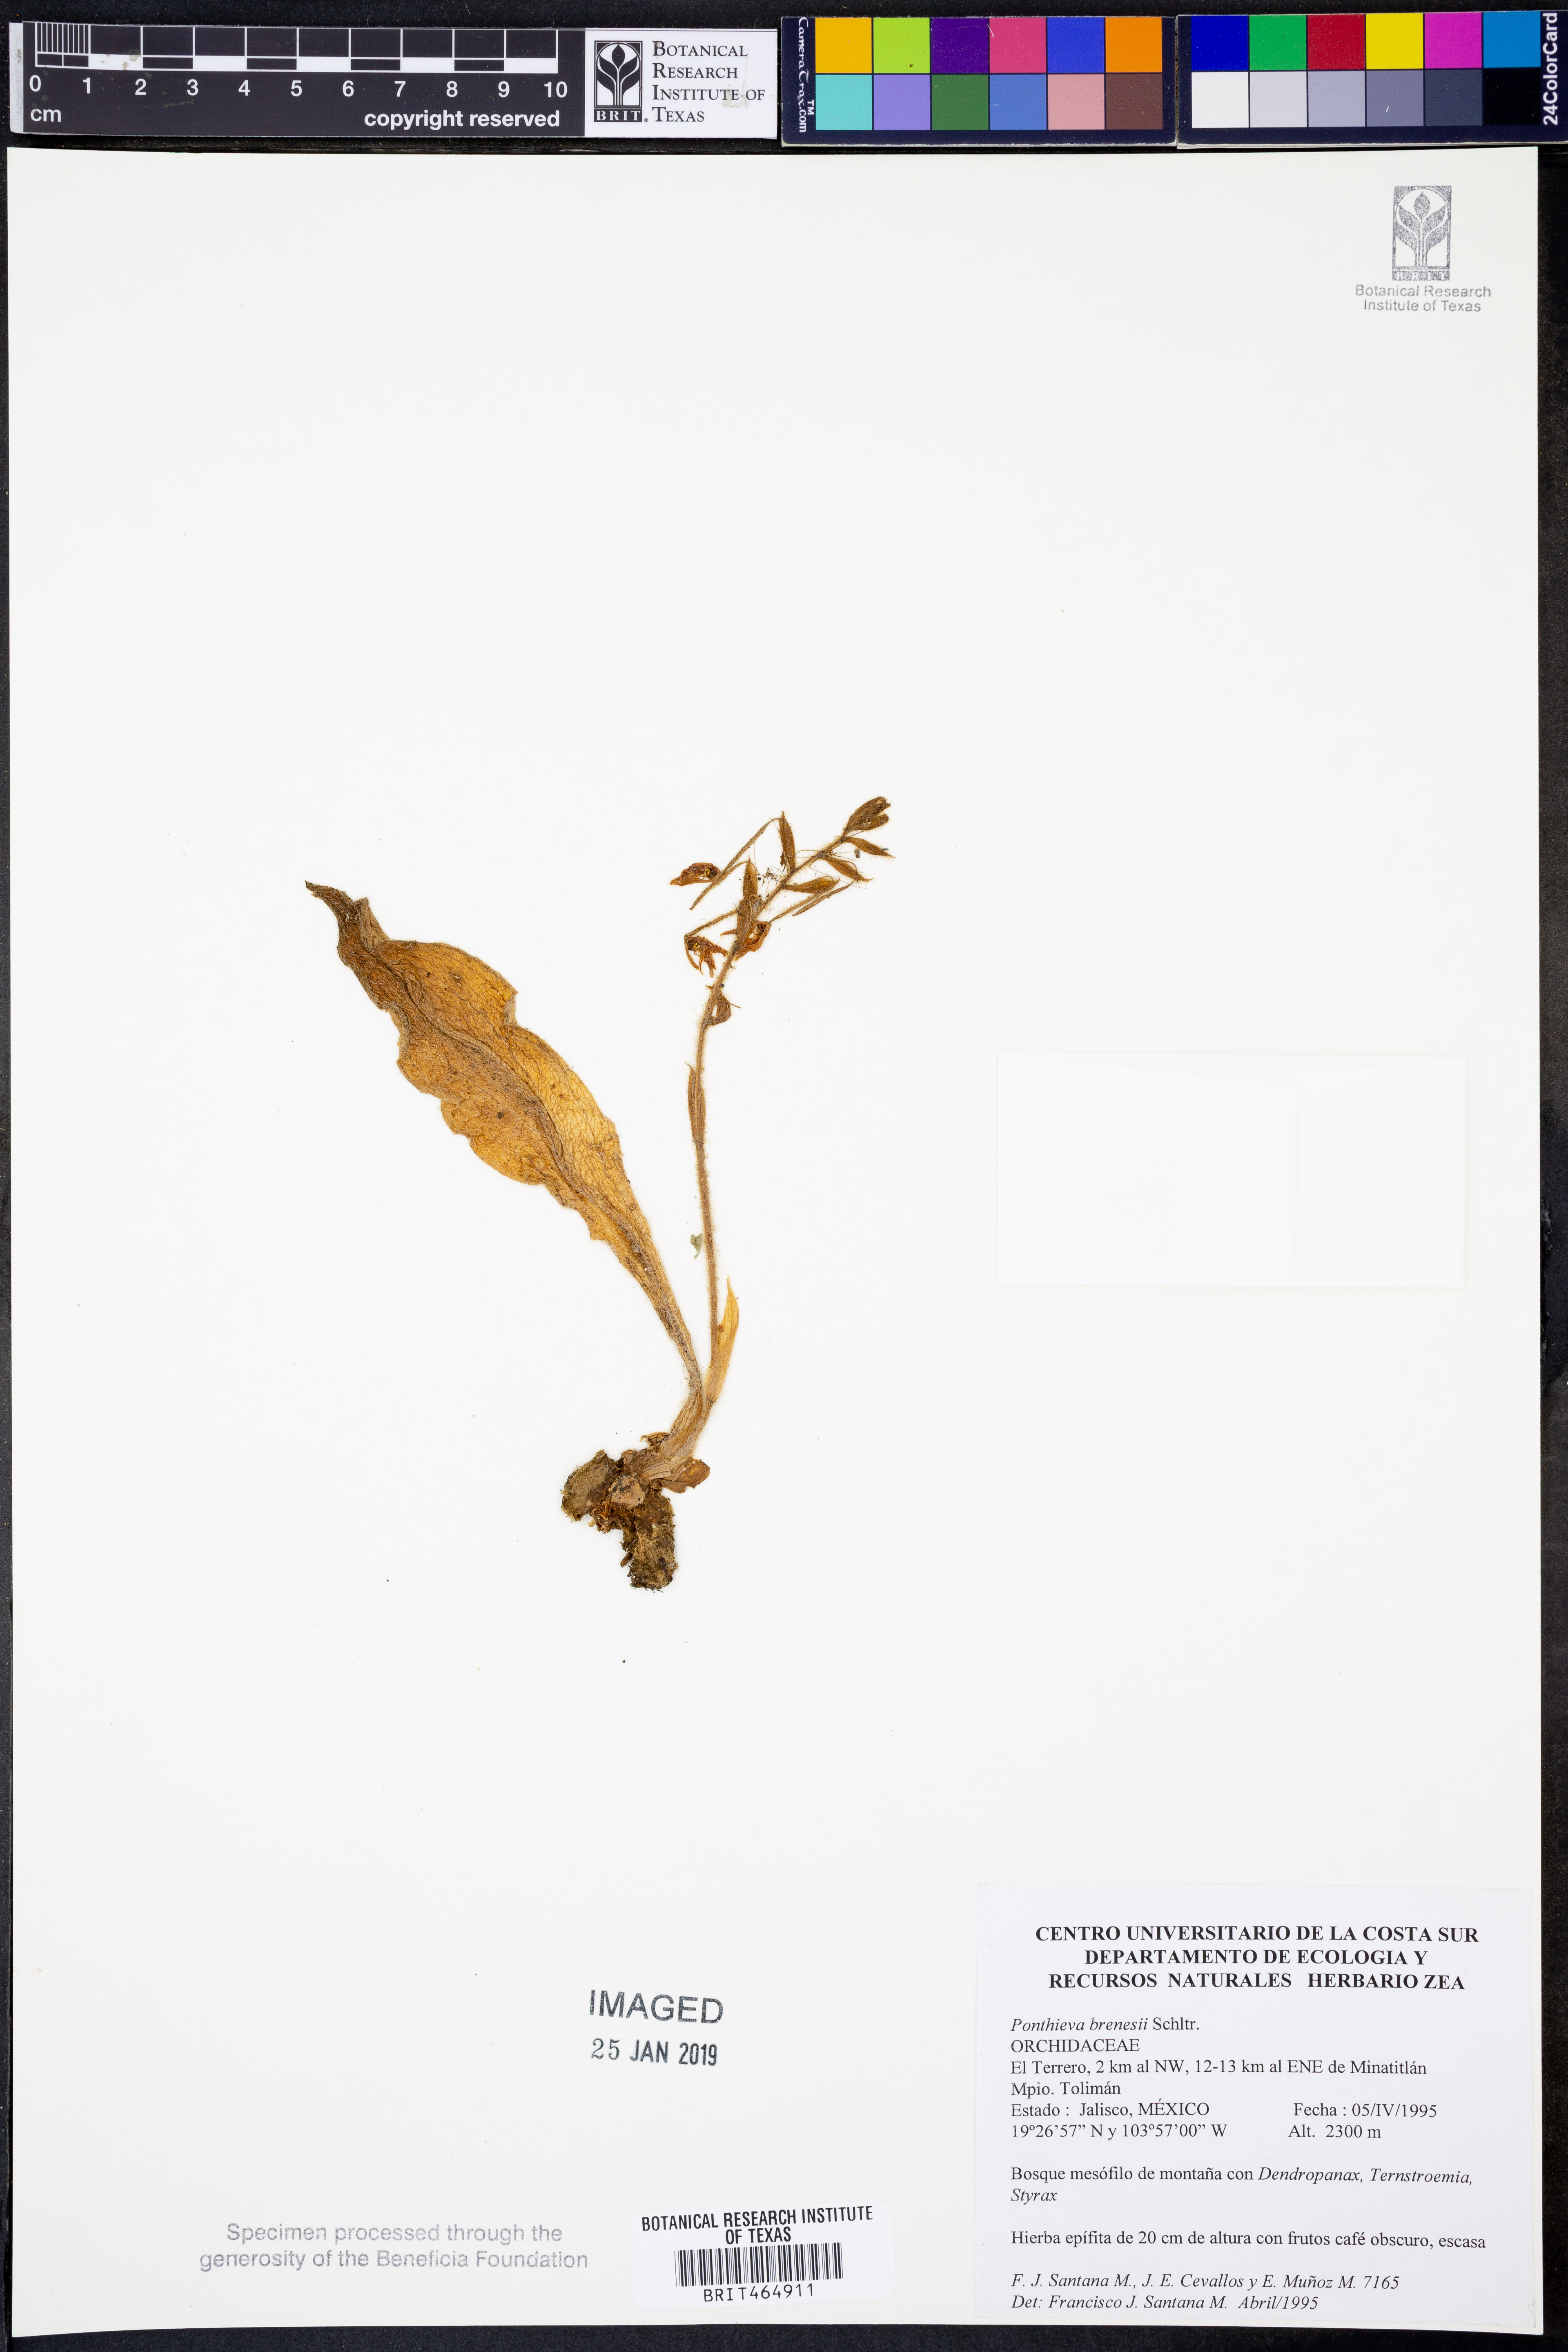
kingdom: Plantae
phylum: Tracheophyta
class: Liliopsida
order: Asparagales
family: Orchidaceae
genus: Ponthieva
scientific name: Ponthieva villosa
